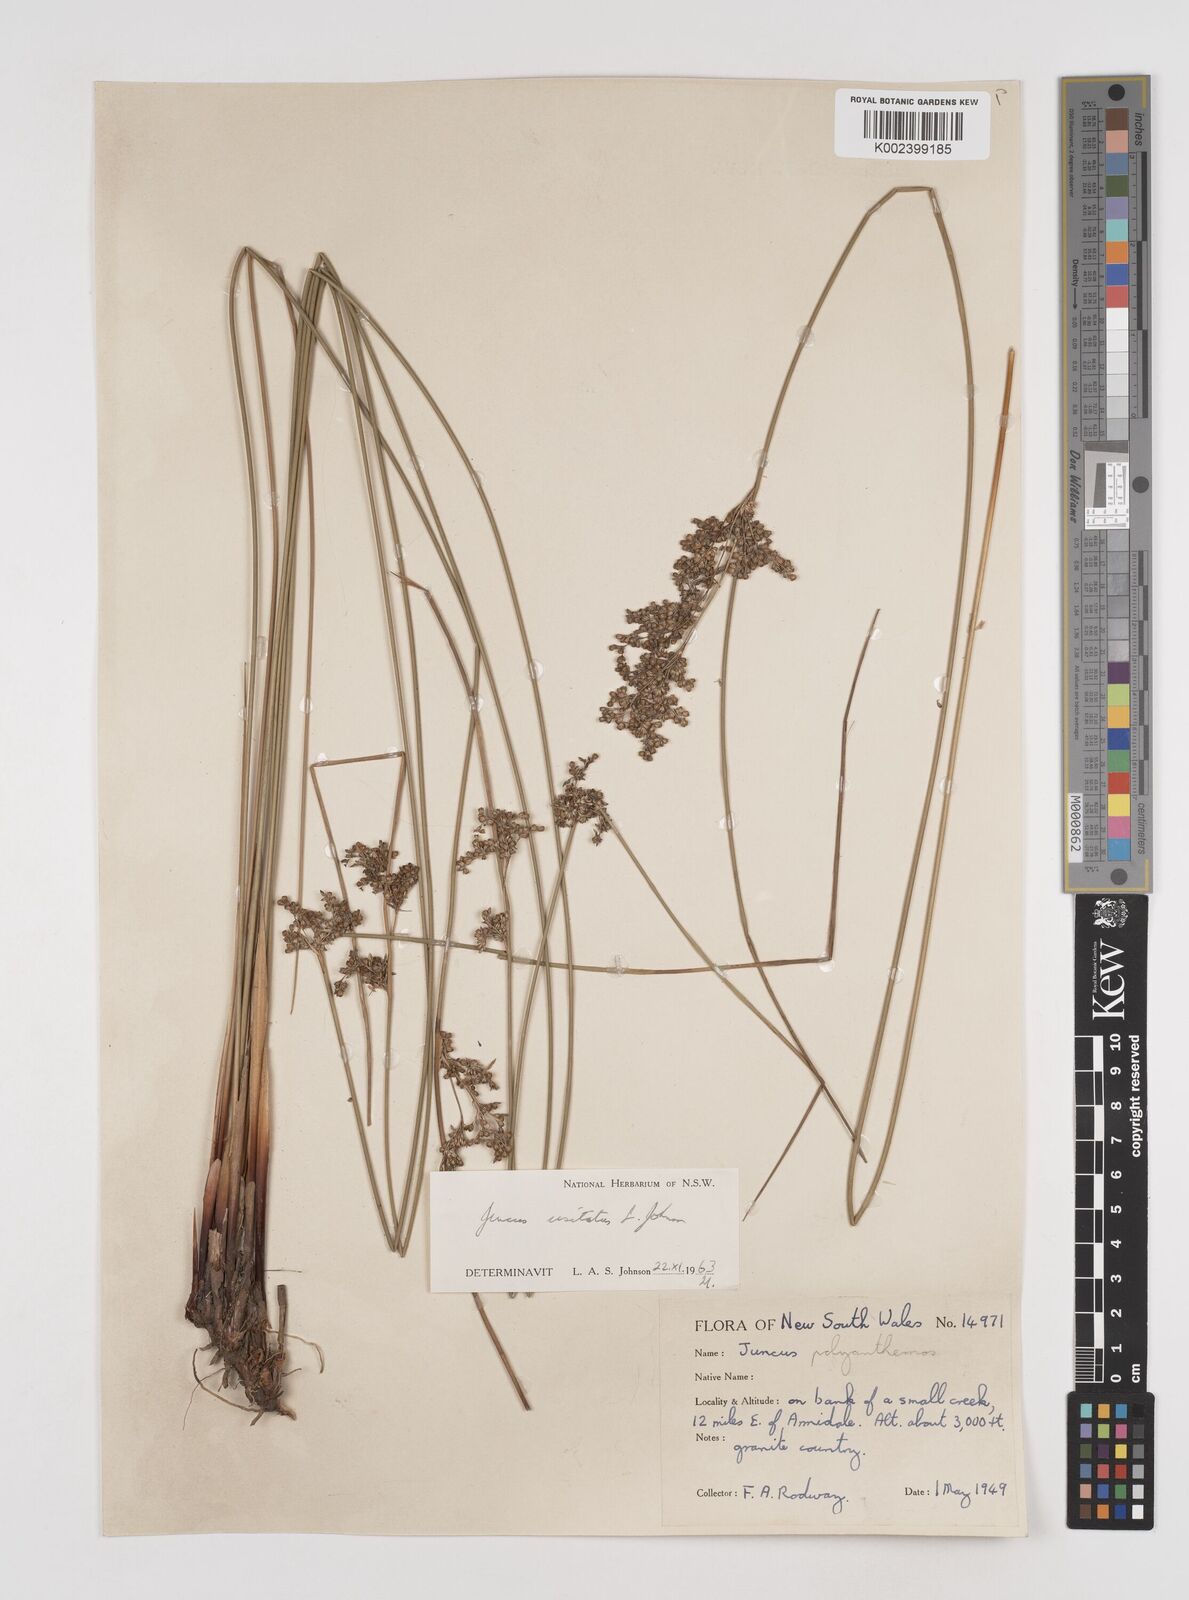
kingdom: Plantae
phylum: Tracheophyta
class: Liliopsida
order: Poales
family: Juncaceae
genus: Juncus
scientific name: Juncus usitatus
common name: Rush
